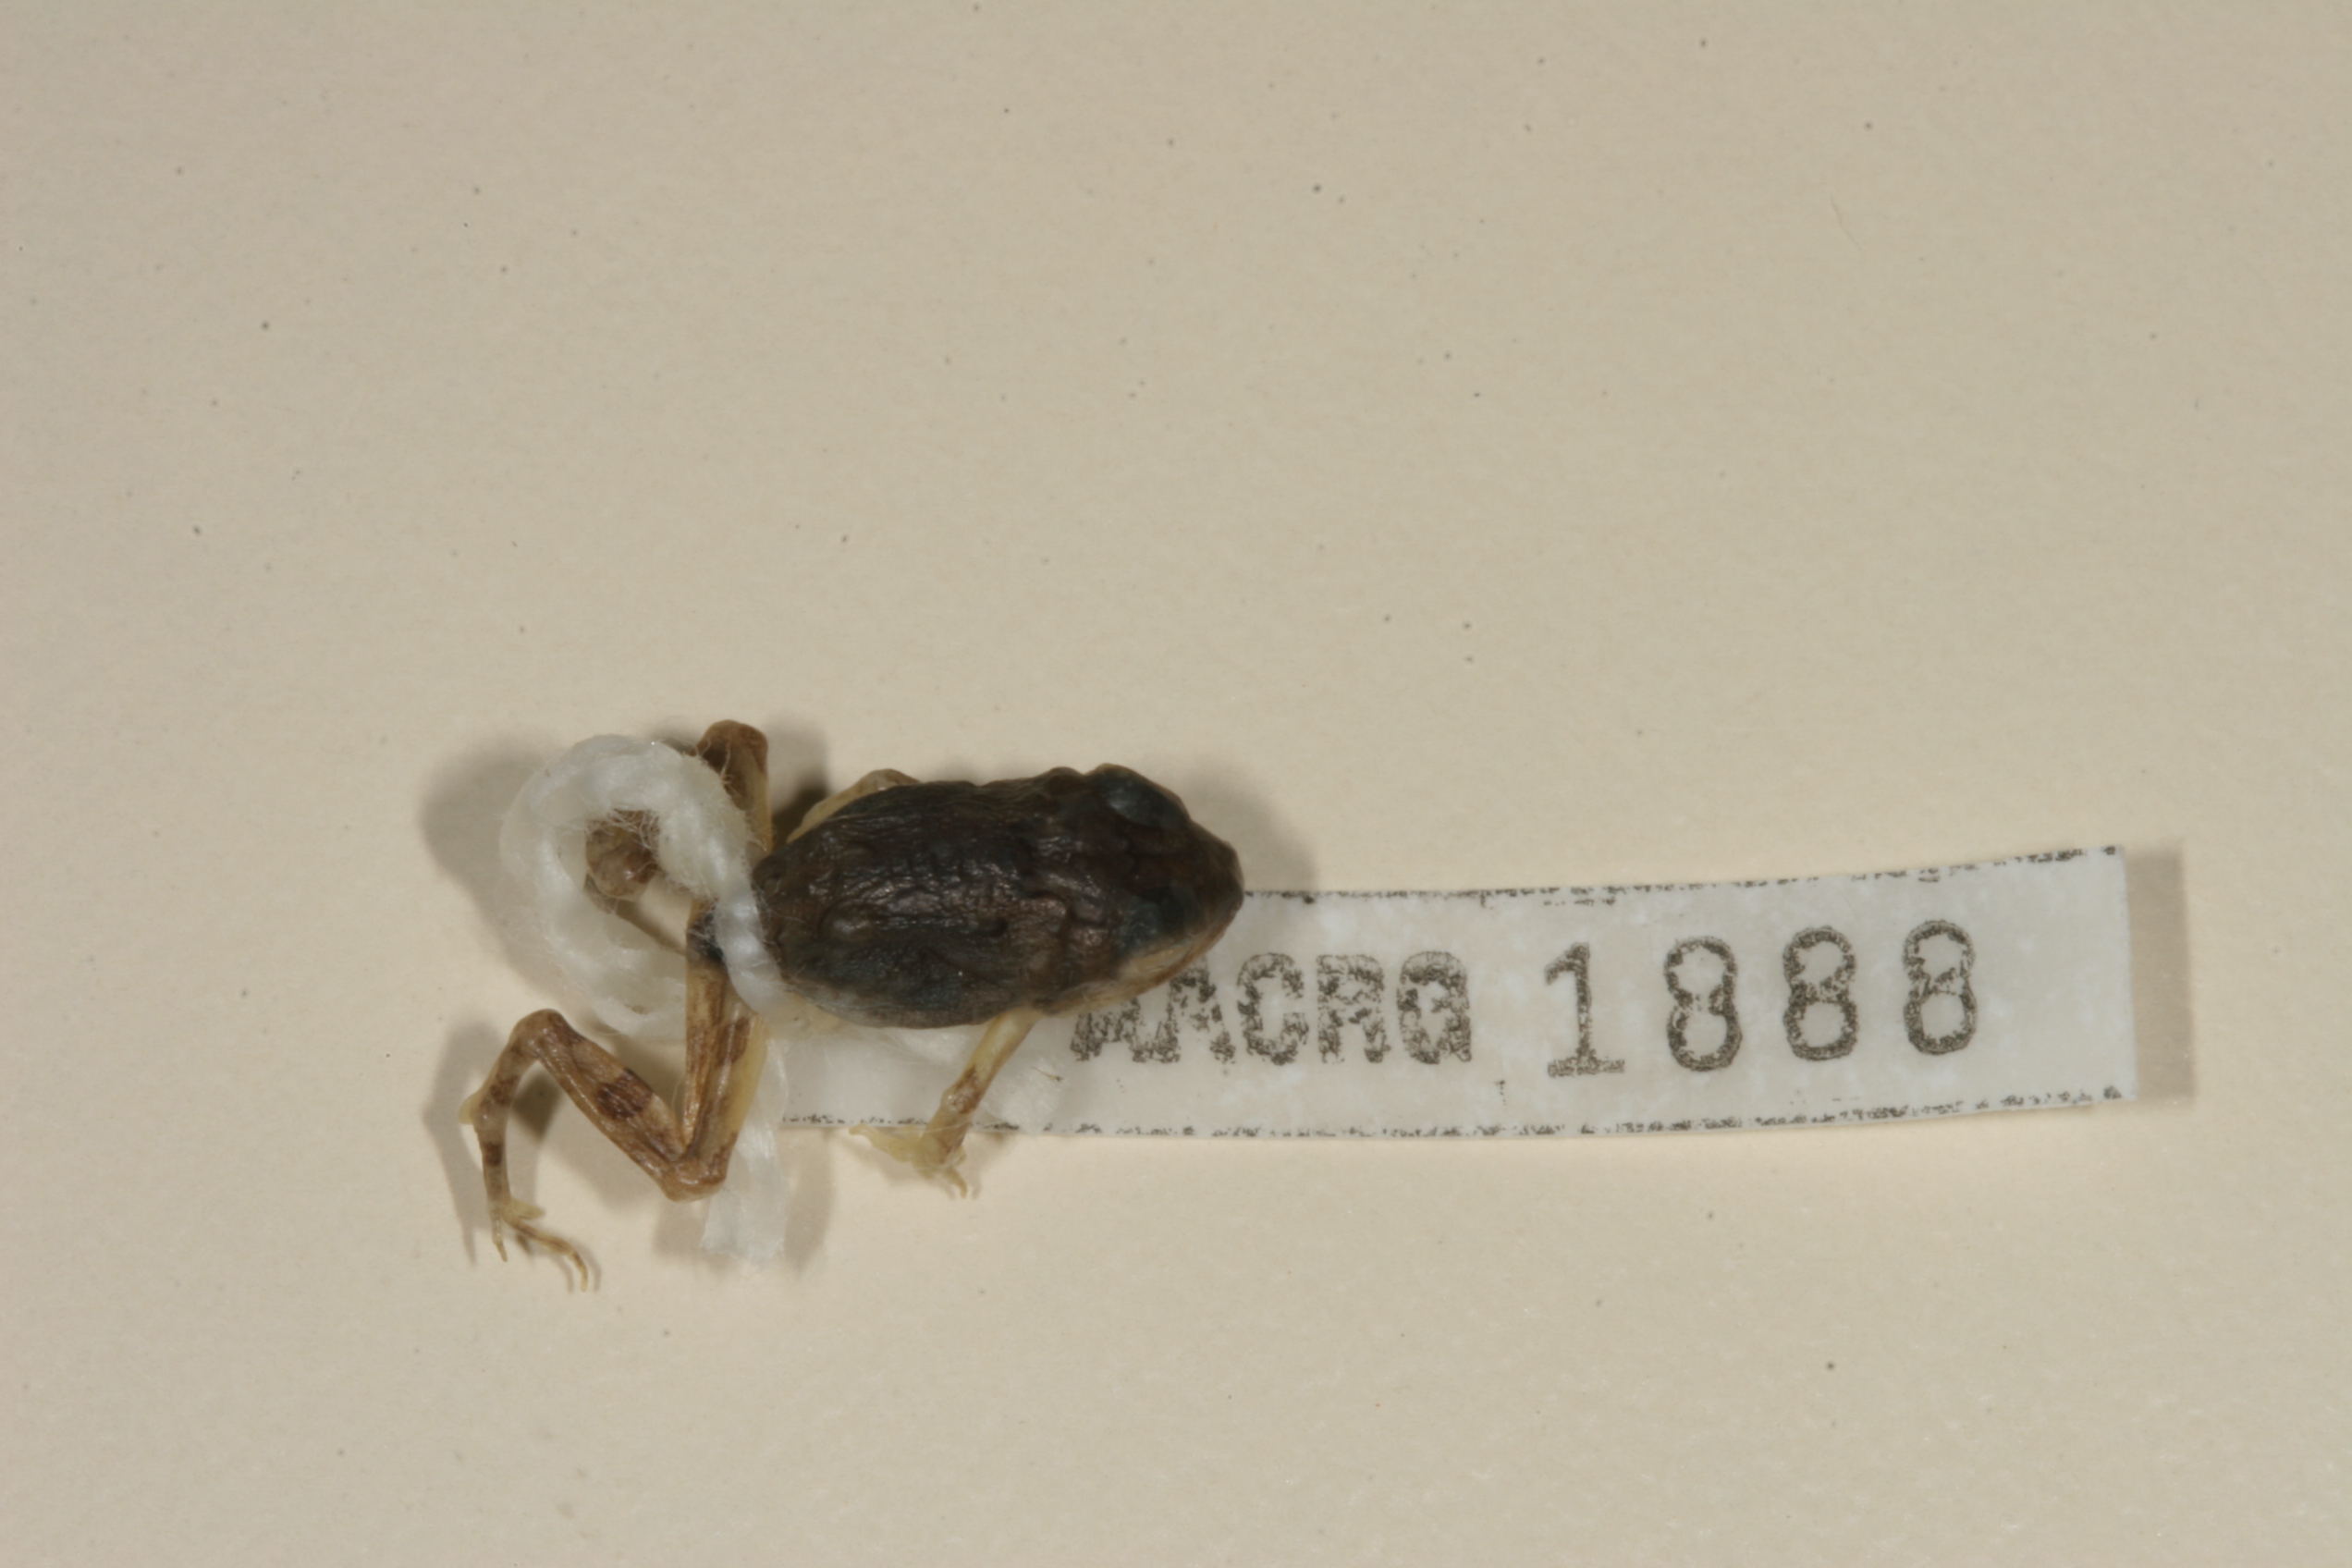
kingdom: Animalia
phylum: Chordata
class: Amphibia
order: Anura
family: Pyxicephalidae
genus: Tomopterna
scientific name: Tomopterna cryptotis
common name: Catequero bullfrog
